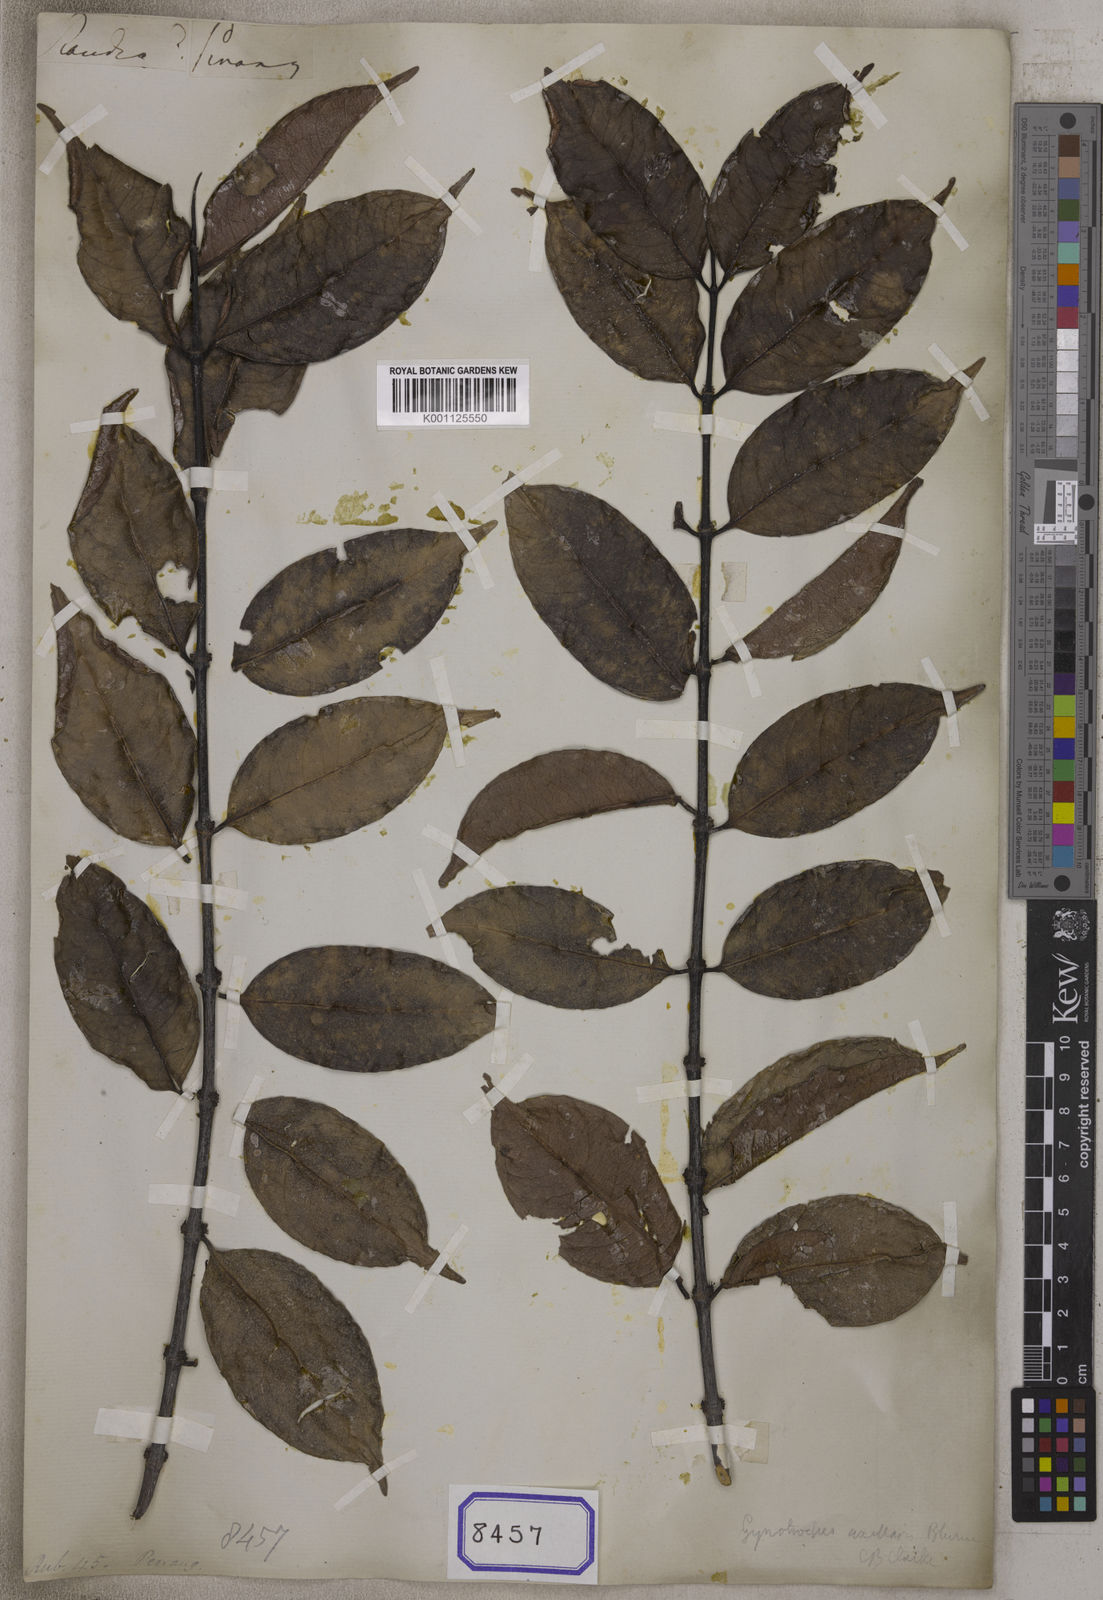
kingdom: Plantae
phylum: Tracheophyta
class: Magnoliopsida
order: Gentianales
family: Rubiaceae
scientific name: Rubiaceae
